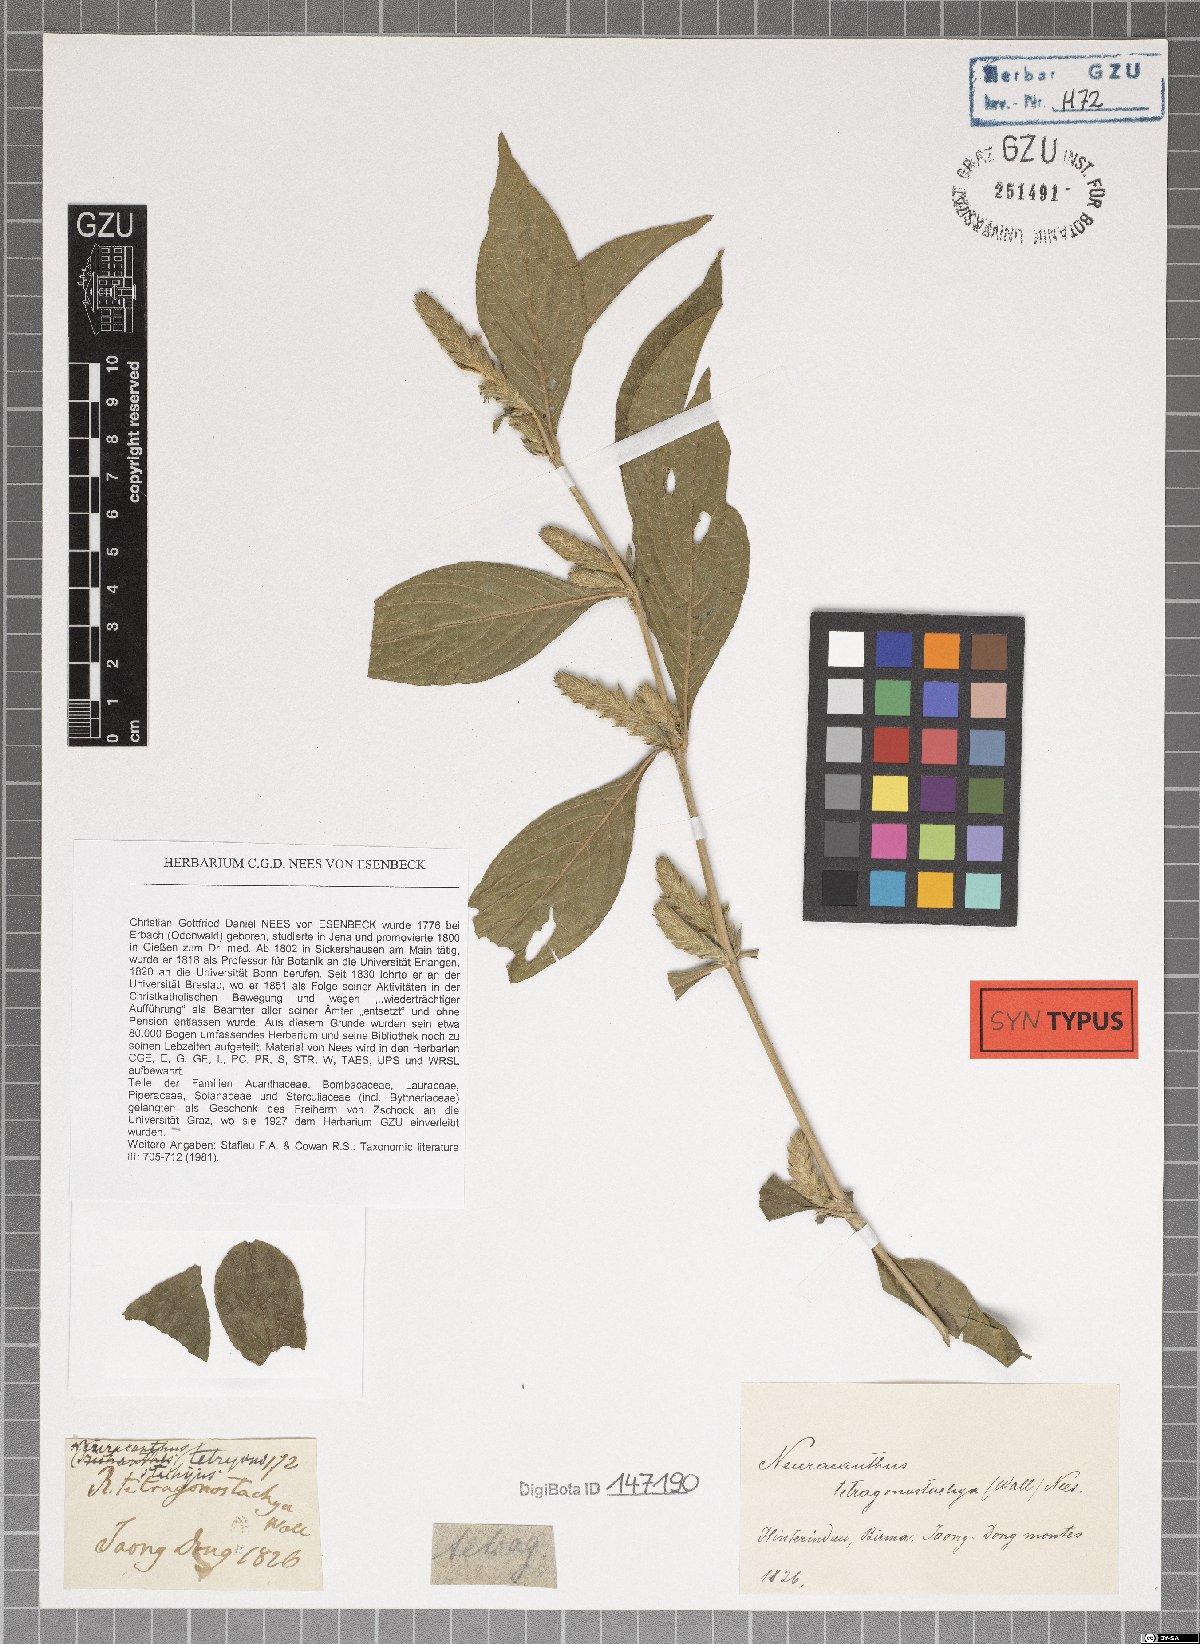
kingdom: Plantae
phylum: Tracheophyta
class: Magnoliopsida
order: Lamiales
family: Acanthaceae
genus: Neuracanthus
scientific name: Neuracanthus tetragonostachyus
